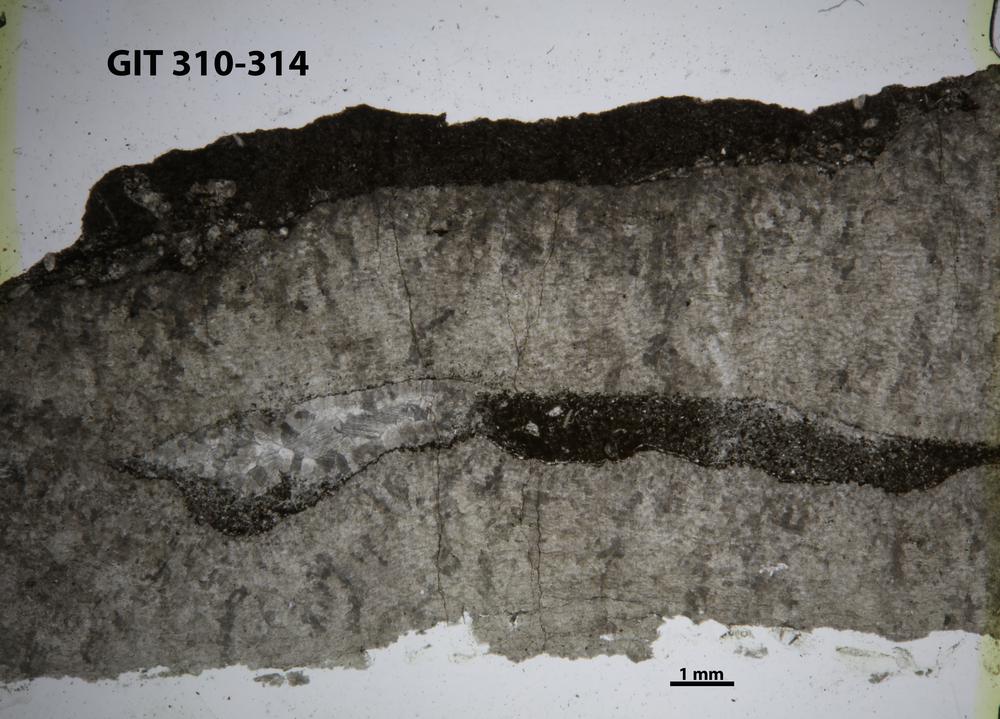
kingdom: Animalia
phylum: Porifera
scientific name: Porifera
